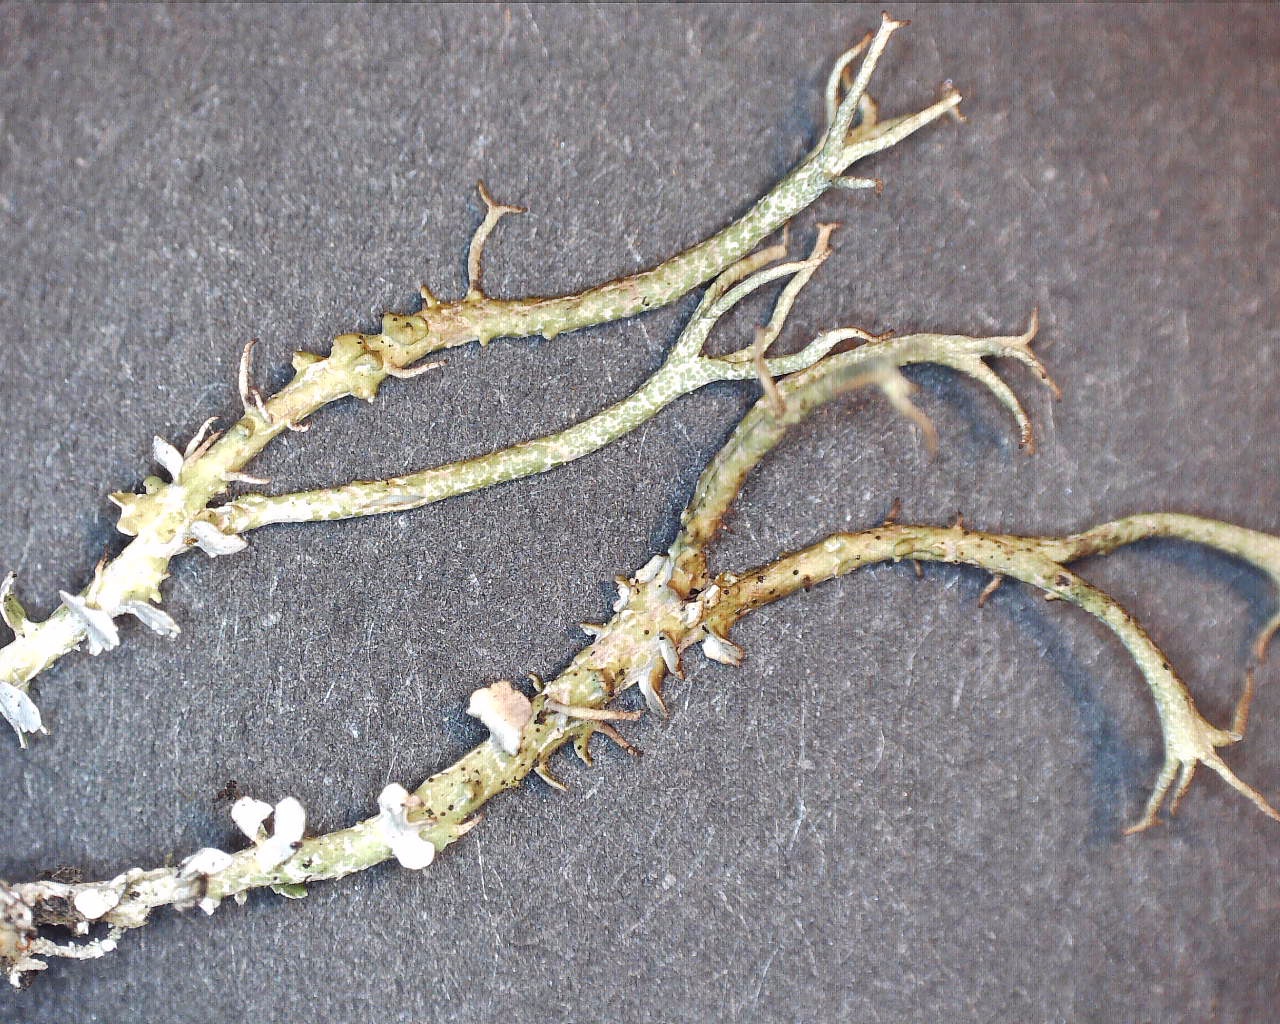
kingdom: Fungi
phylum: Ascomycota
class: Lecanoromycetes
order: Lecanorales
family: Cladoniaceae
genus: Cladonia
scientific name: Cladonia furcata
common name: kløftet bægerlav
